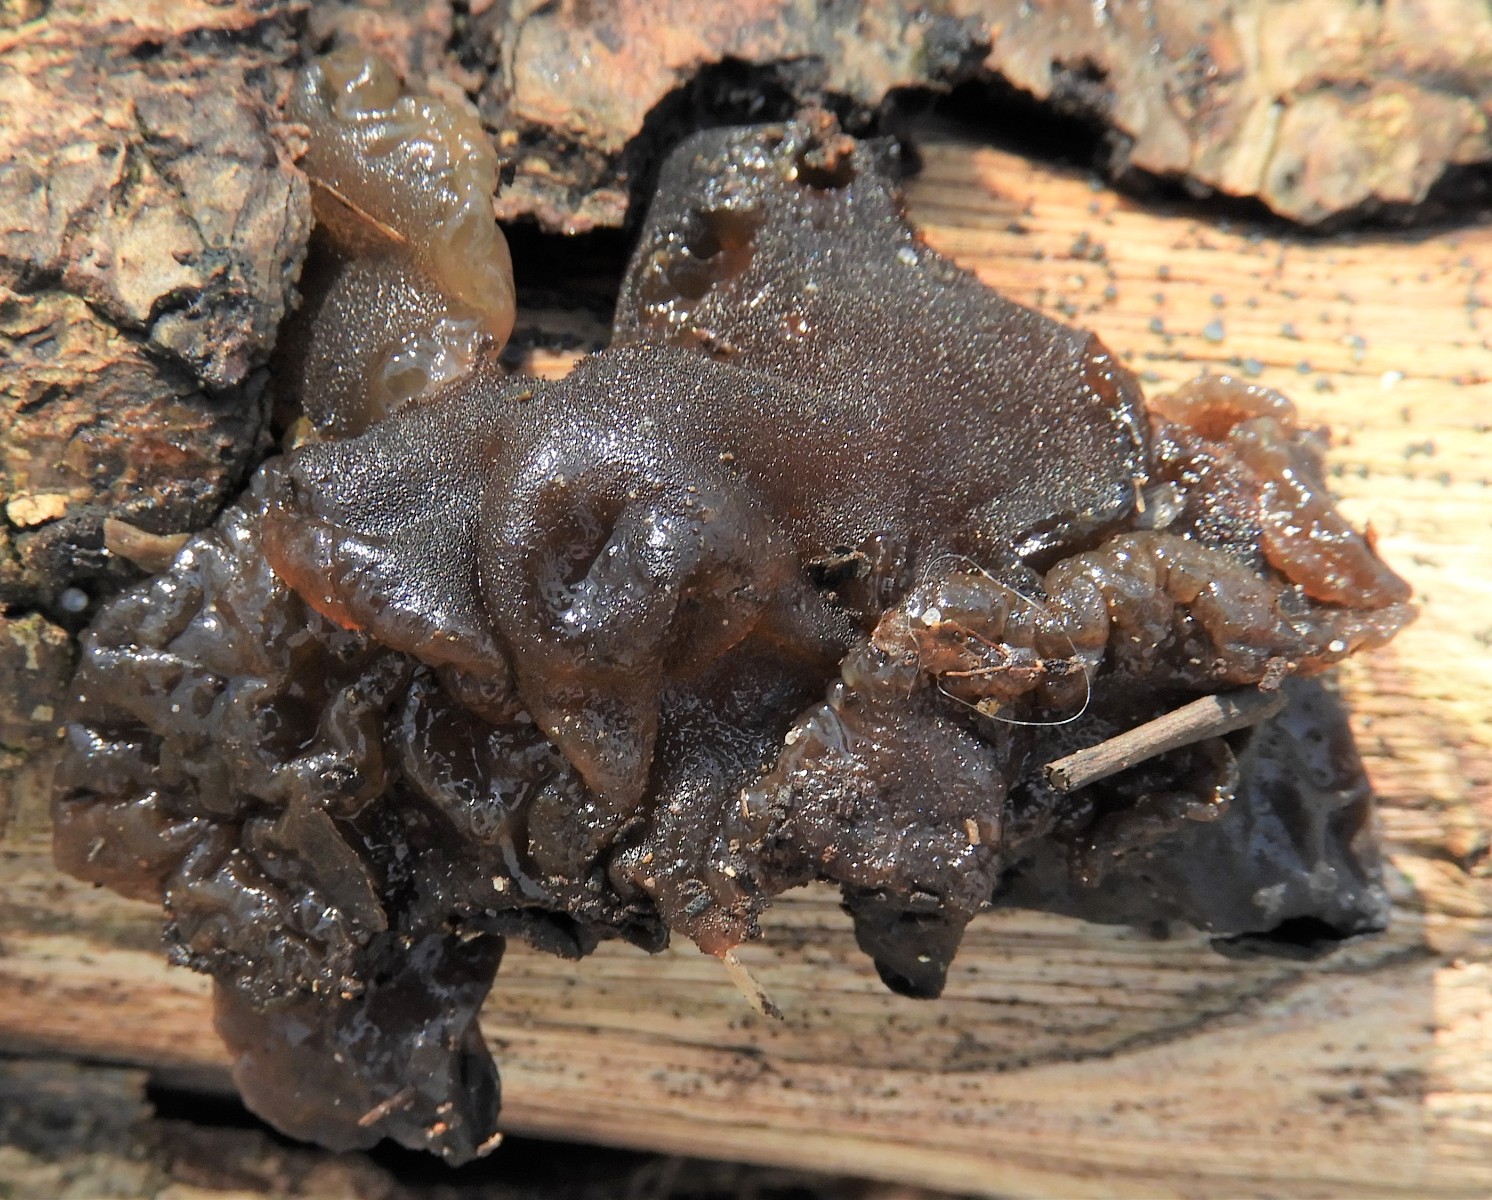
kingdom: Fungi
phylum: Basidiomycota
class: Agaricomycetes
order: Auriculariales
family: Auriculariaceae
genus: Exidia
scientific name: Exidia glandulosa
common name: ege-bævretop
